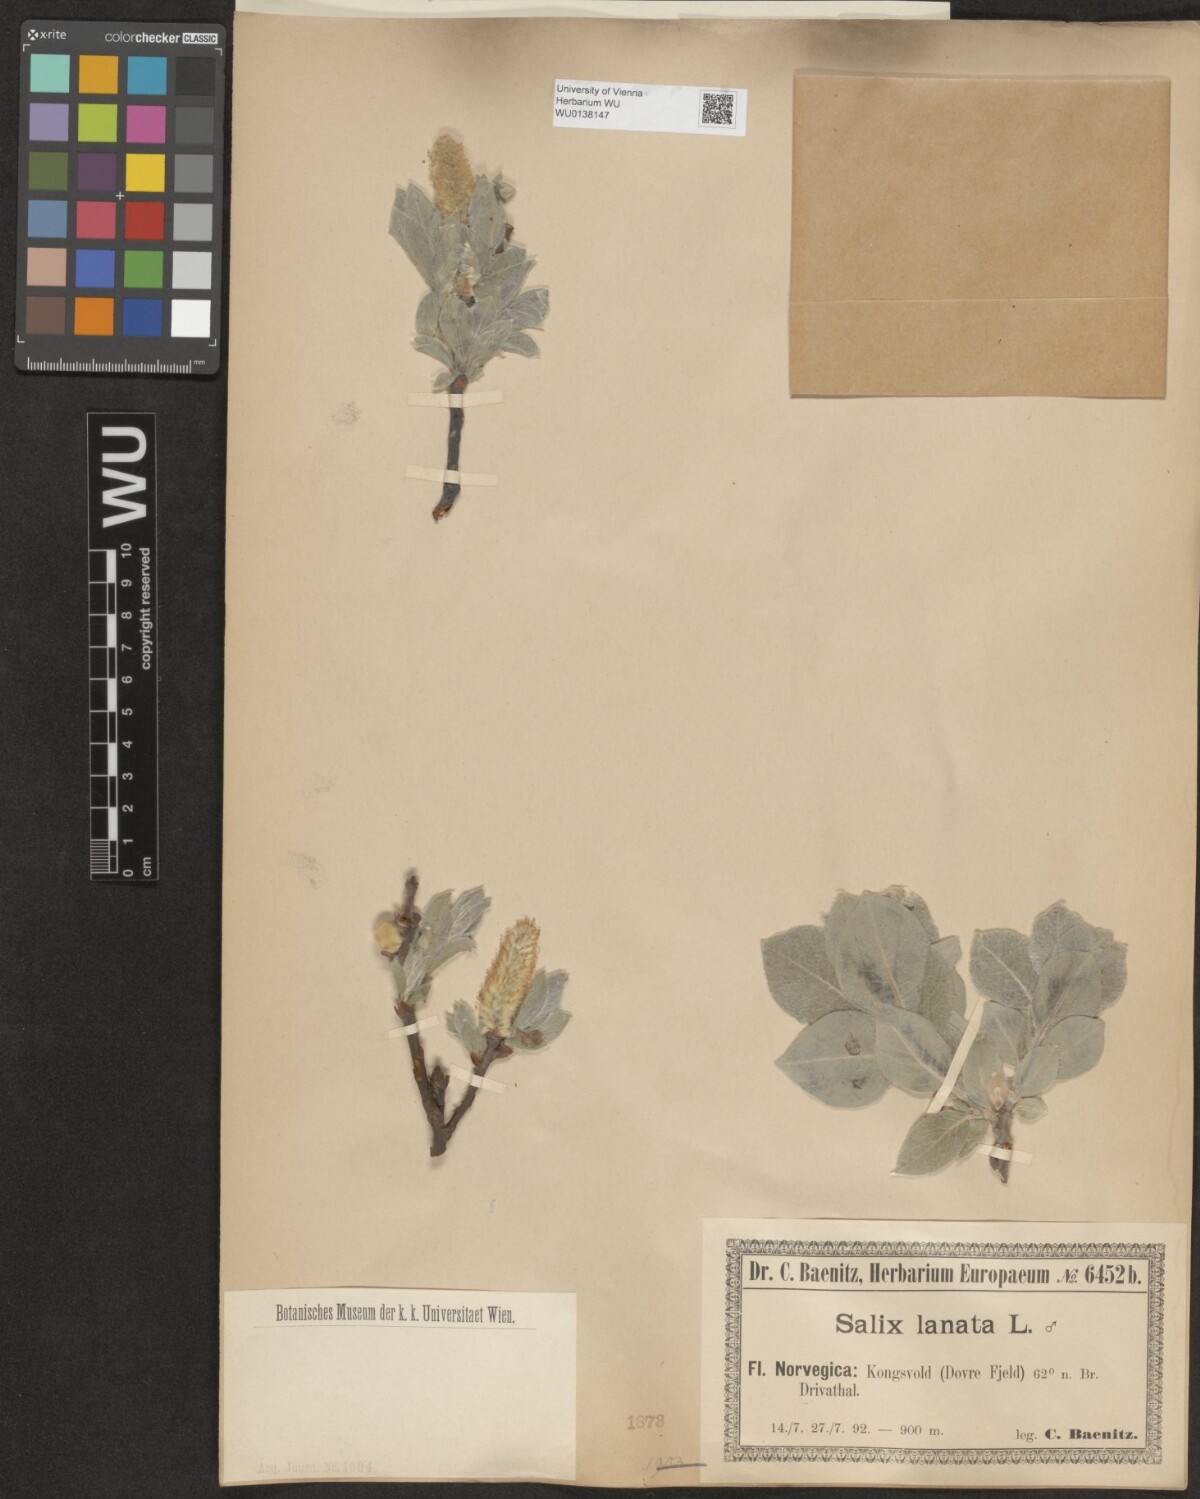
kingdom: Plantae
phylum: Tracheophyta
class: Magnoliopsida
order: Malpighiales
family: Salicaceae
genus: Salix
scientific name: Salix lanata
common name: Woolly willow
